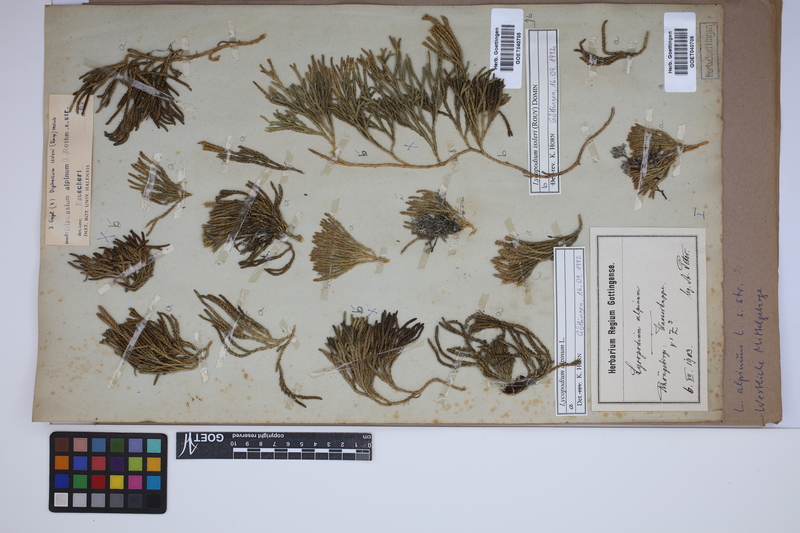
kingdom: Plantae
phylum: Tracheophyta
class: Lycopodiopsida
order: Lycopodiales
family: Lycopodiaceae
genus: Diphasiastrum
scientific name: Diphasiastrum alpinum
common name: Alpine clubmoss
